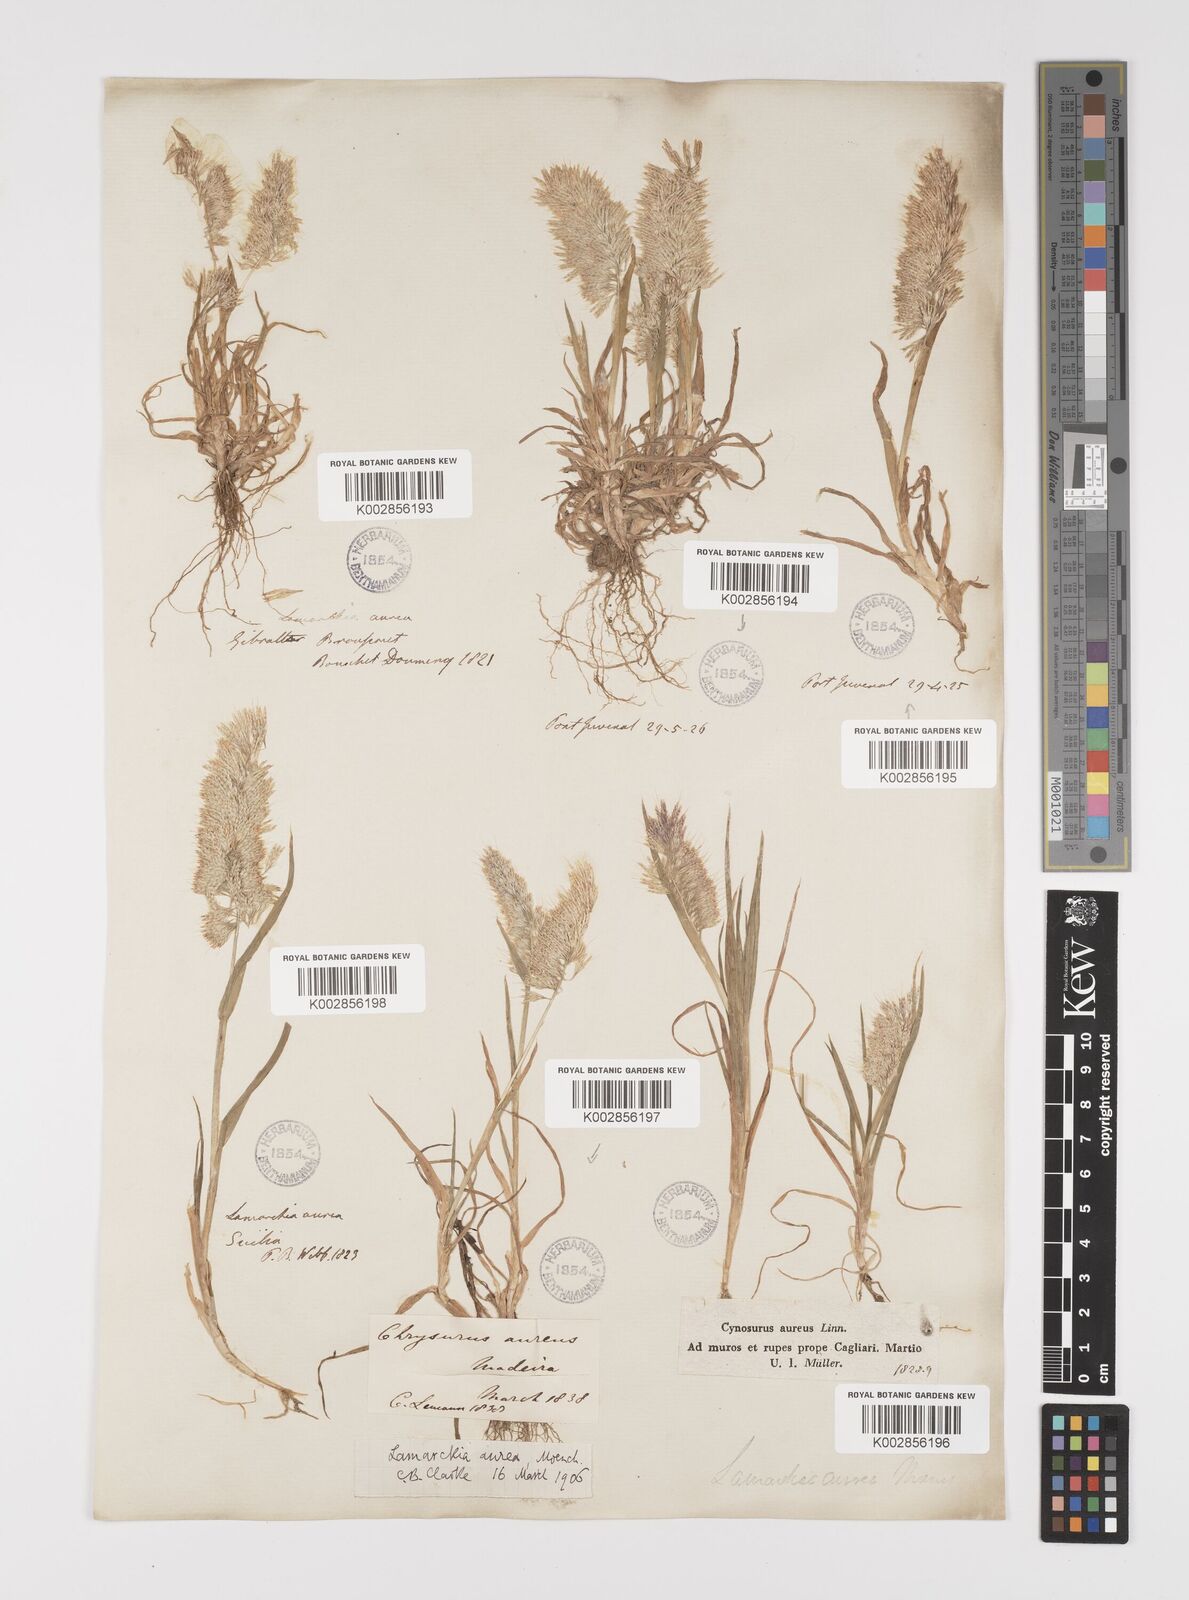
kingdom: Plantae
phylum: Tracheophyta
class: Liliopsida
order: Poales
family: Poaceae
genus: Lamarckia
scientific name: Lamarckia aurea
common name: Golden dog's-tail
